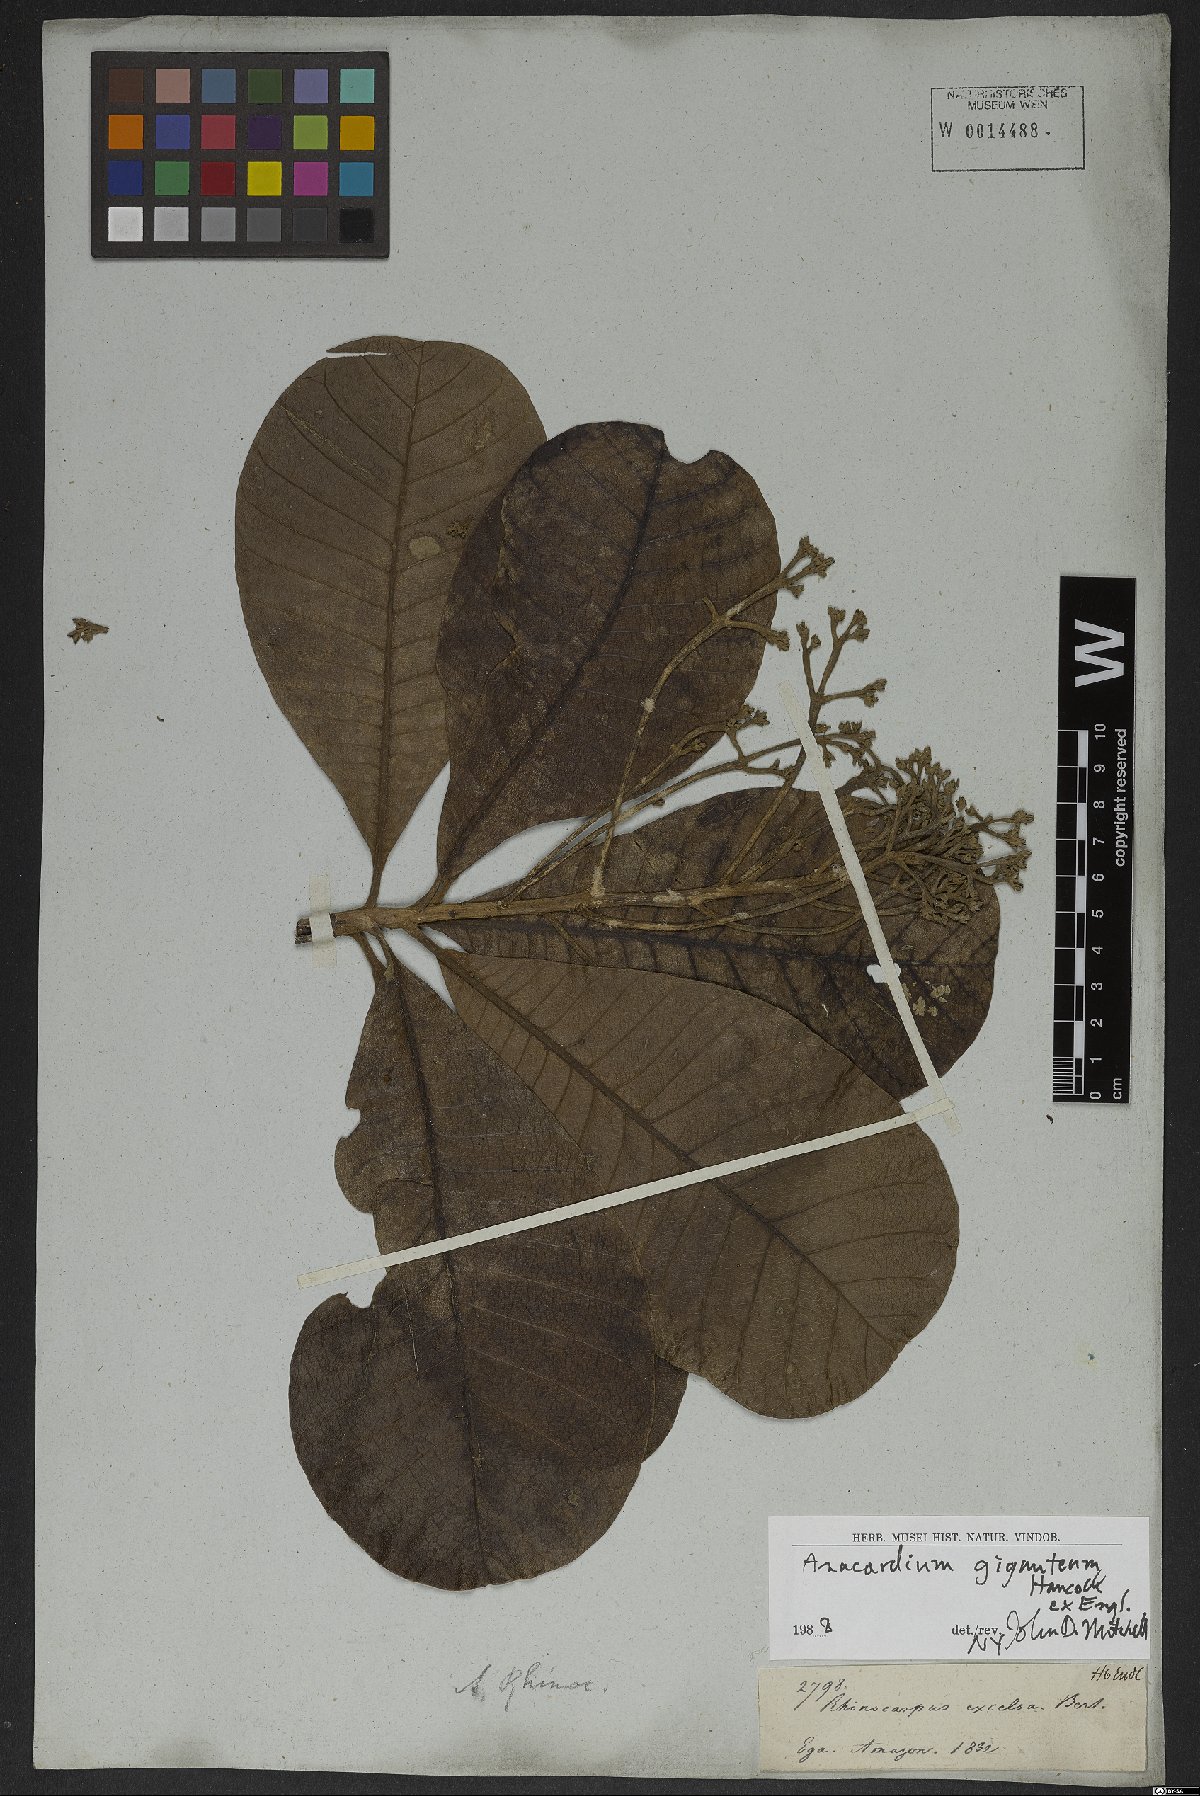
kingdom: Plantae
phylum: Tracheophyta
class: Magnoliopsida
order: Sapindales
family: Anacardiaceae
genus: Anacardium
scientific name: Anacardium giganteum
